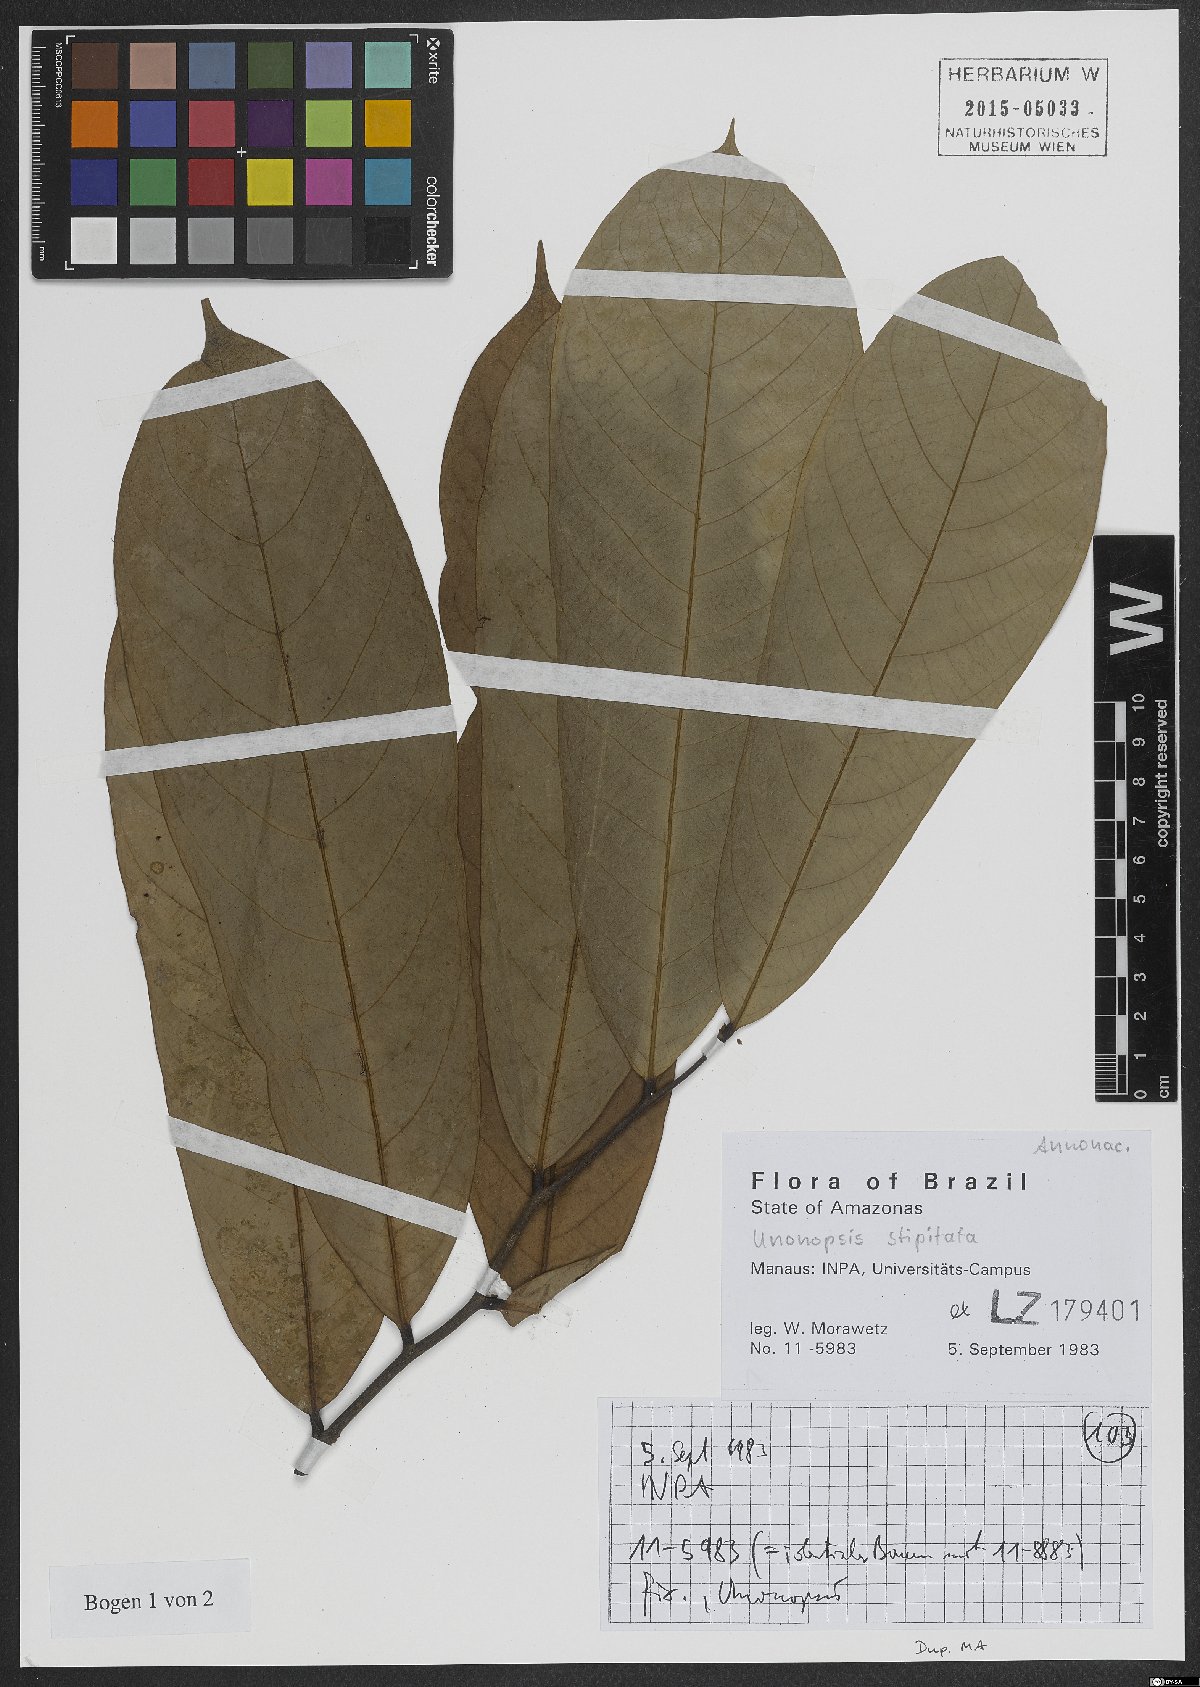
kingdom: Plantae
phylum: Tracheophyta
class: Magnoliopsida
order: Magnoliales
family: Annonaceae
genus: Unonopsis
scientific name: Unonopsis stipitata
